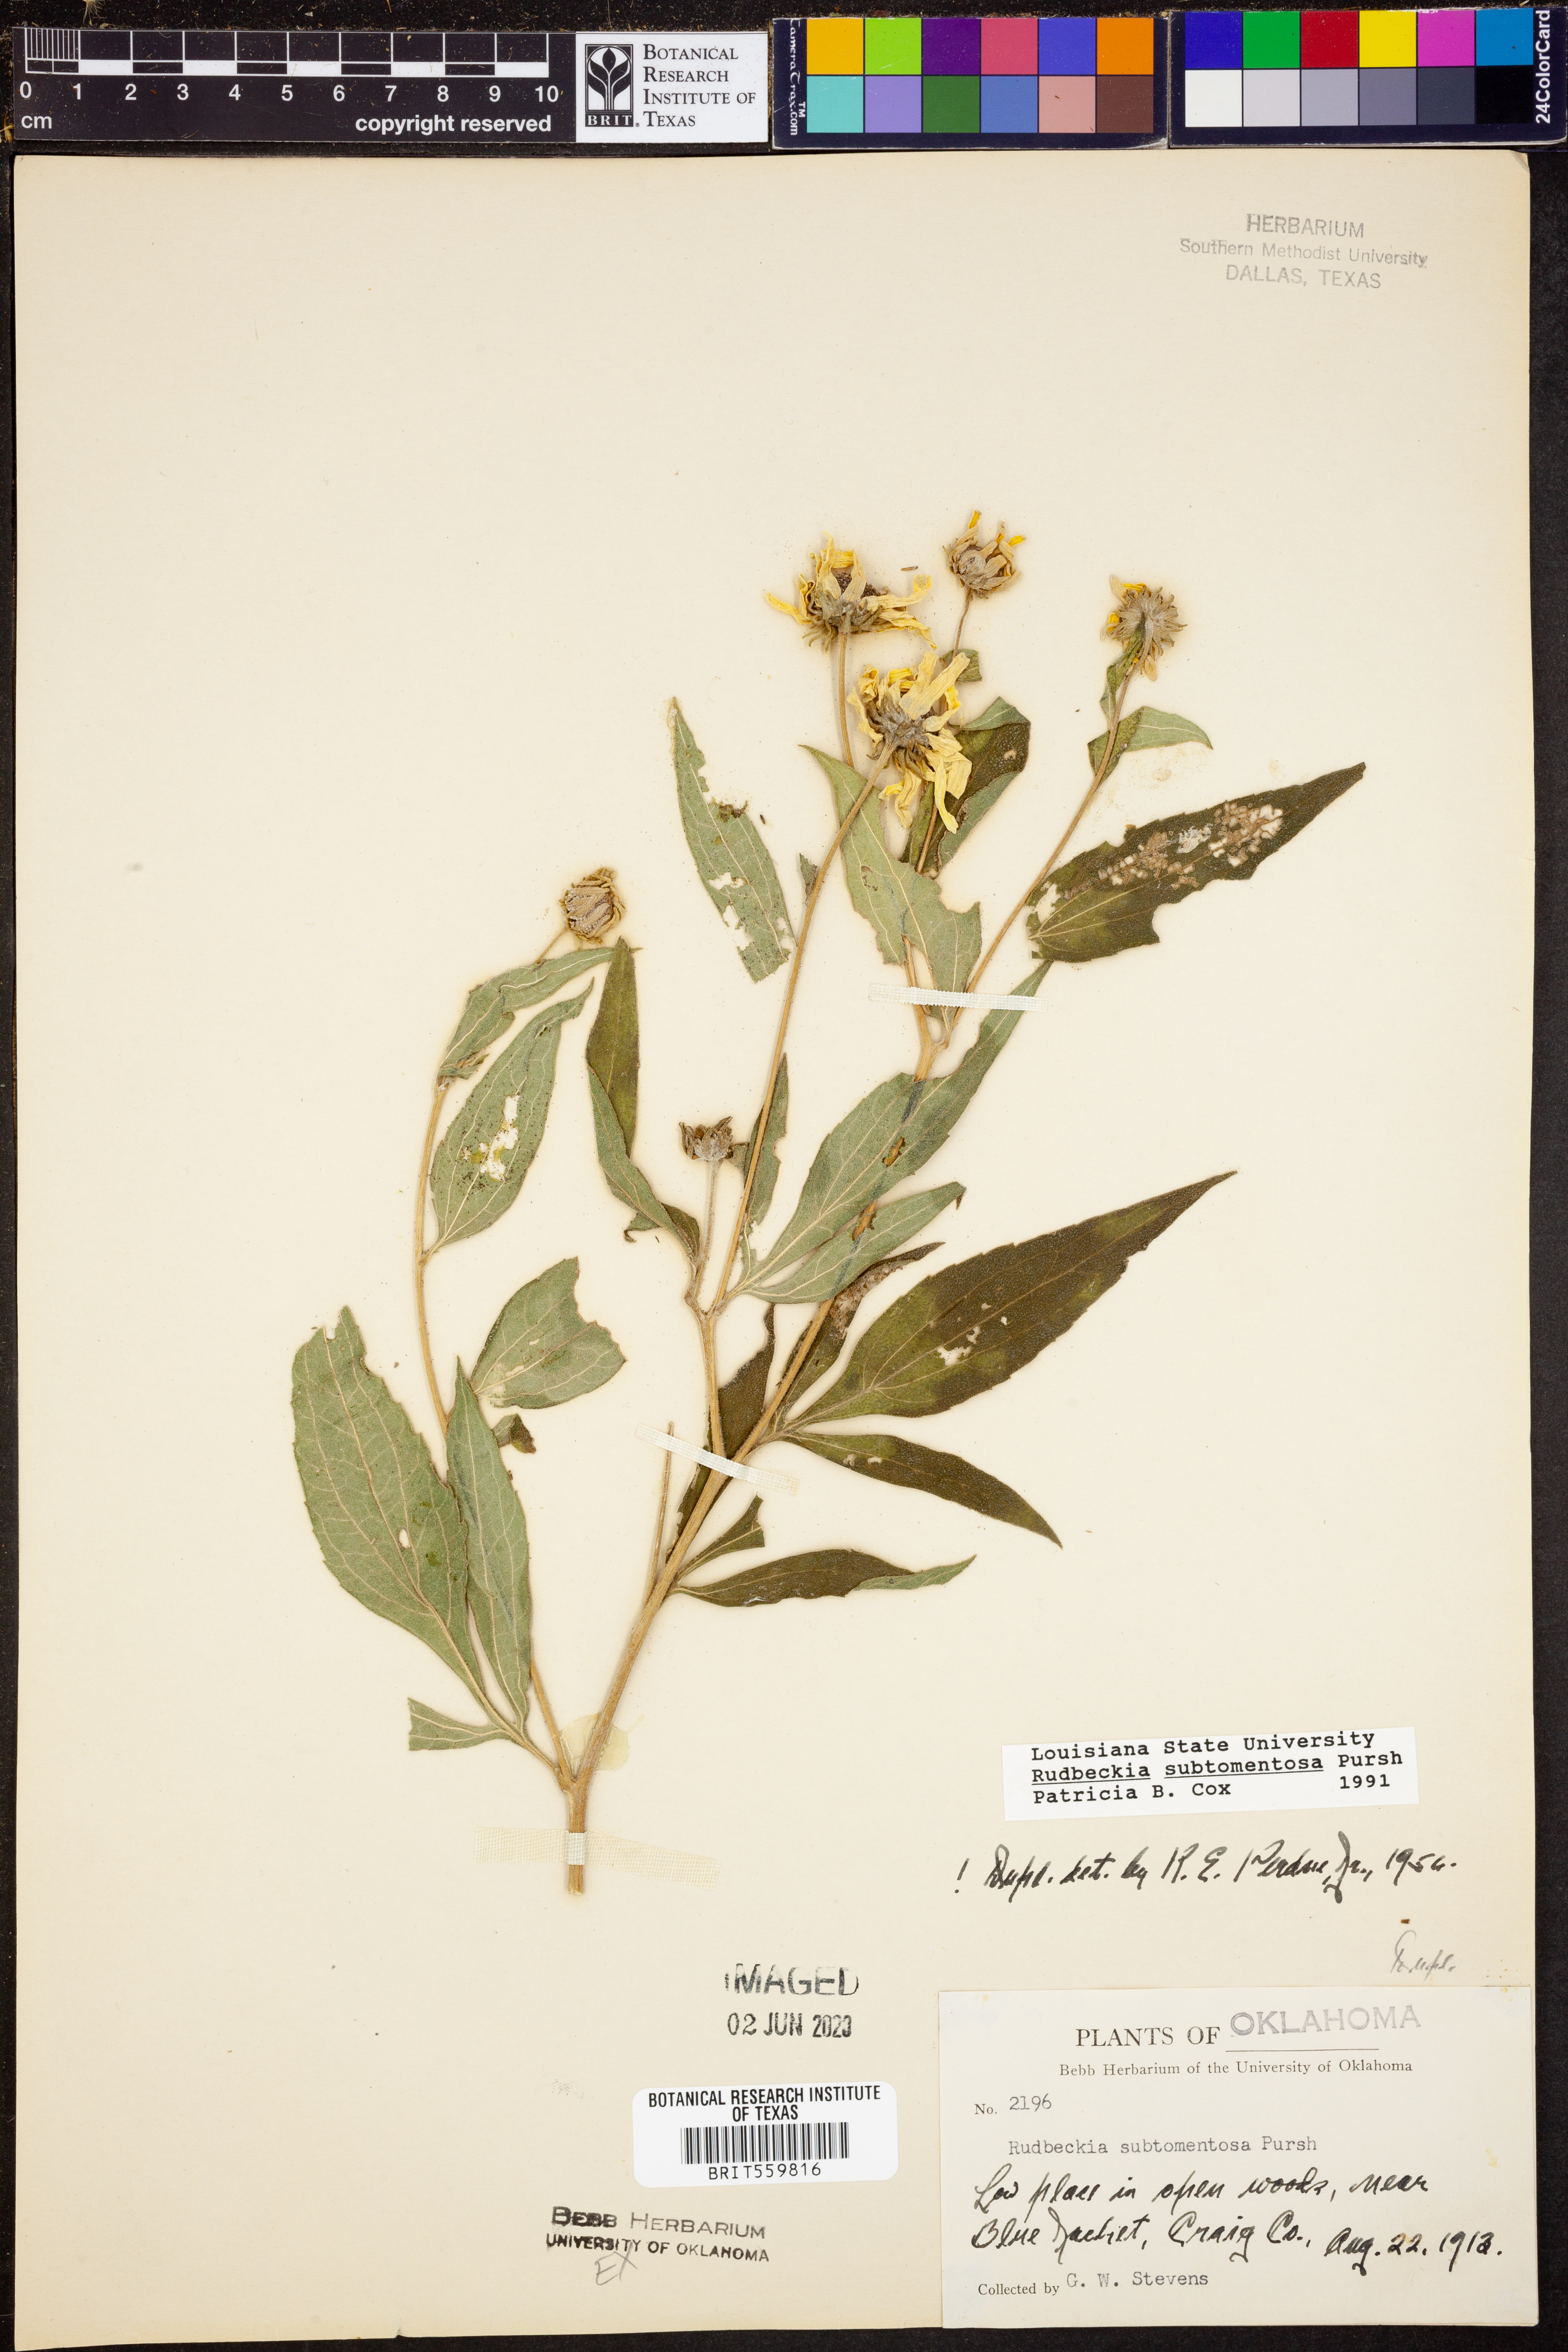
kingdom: Plantae
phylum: Tracheophyta
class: Magnoliopsida
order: Asterales
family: Asteraceae
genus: Rudbeckia
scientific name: Rudbeckia subtomentosa
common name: Sweet coneflower
